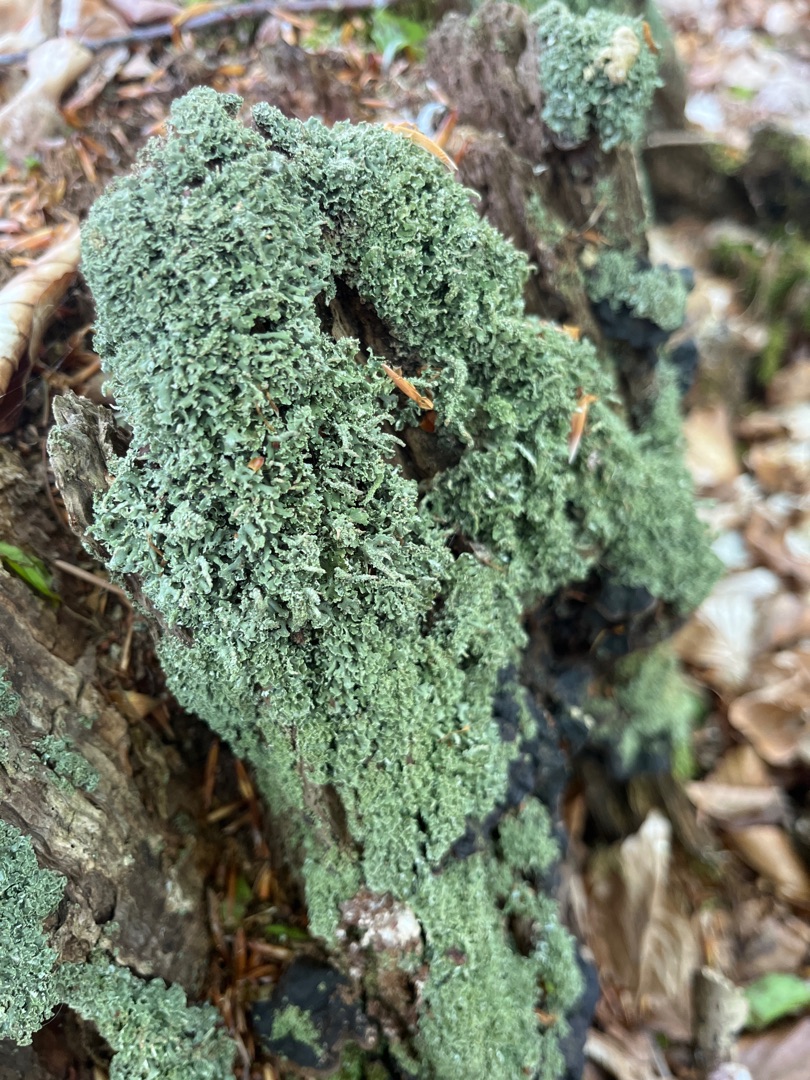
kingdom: Fungi
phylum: Ascomycota
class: Lecanoromycetes
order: Lecanorales
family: Cladoniaceae
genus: Cladonia
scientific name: Cladonia
